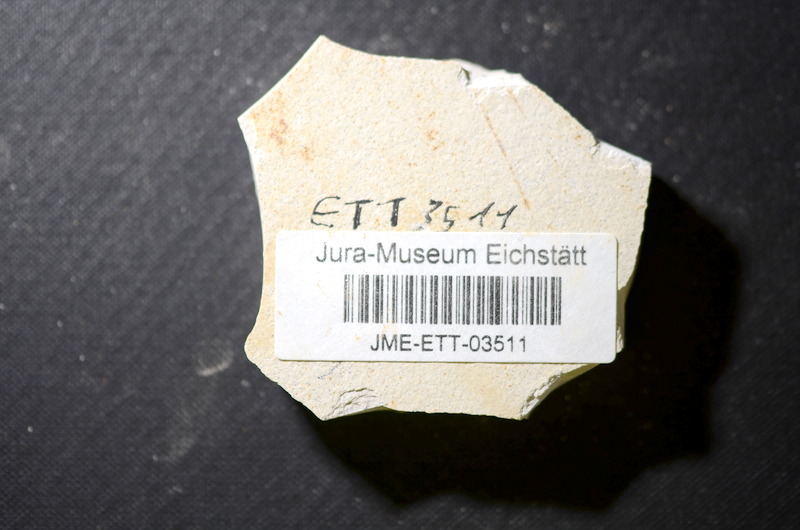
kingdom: Animalia
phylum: Chordata
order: Salmoniformes
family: Orthogonikleithridae
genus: Orthogonikleithrus
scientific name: Orthogonikleithrus hoelli
